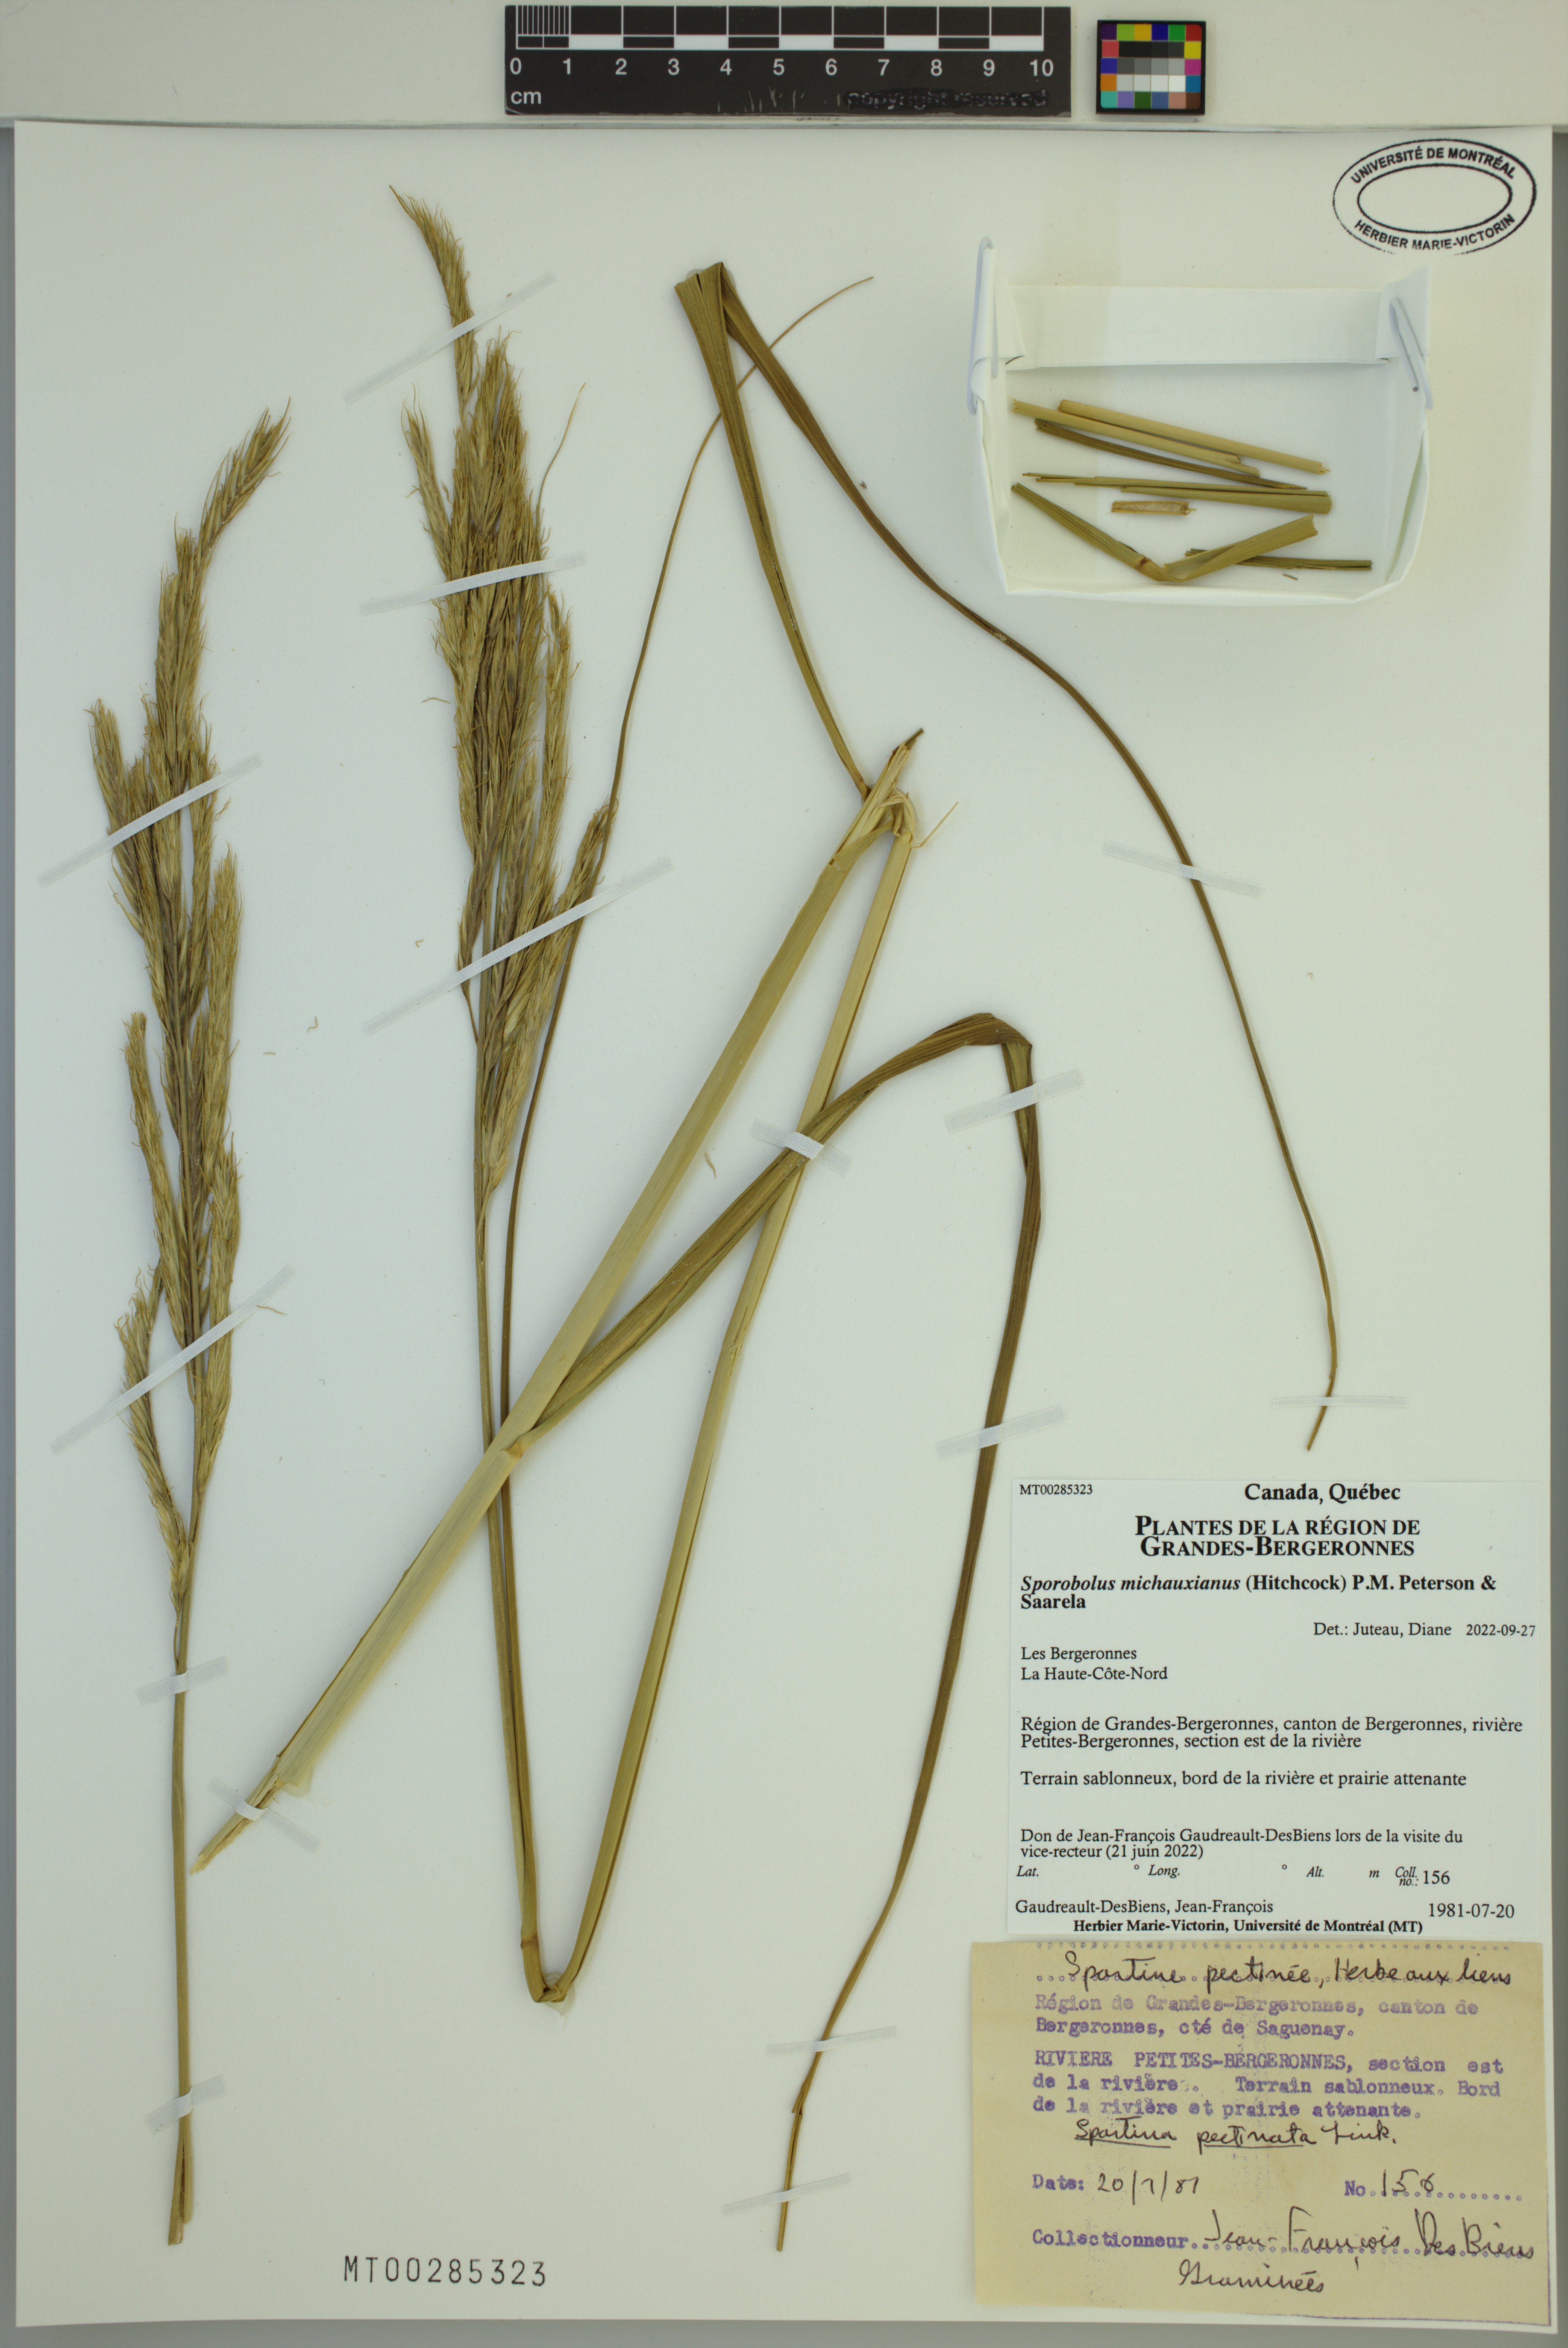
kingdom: Plantae
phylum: Tracheophyta
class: Liliopsida
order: Poales
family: Poaceae
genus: Sporobolus
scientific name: Sporobolus michauxianus
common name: Freshwater cordgrass
